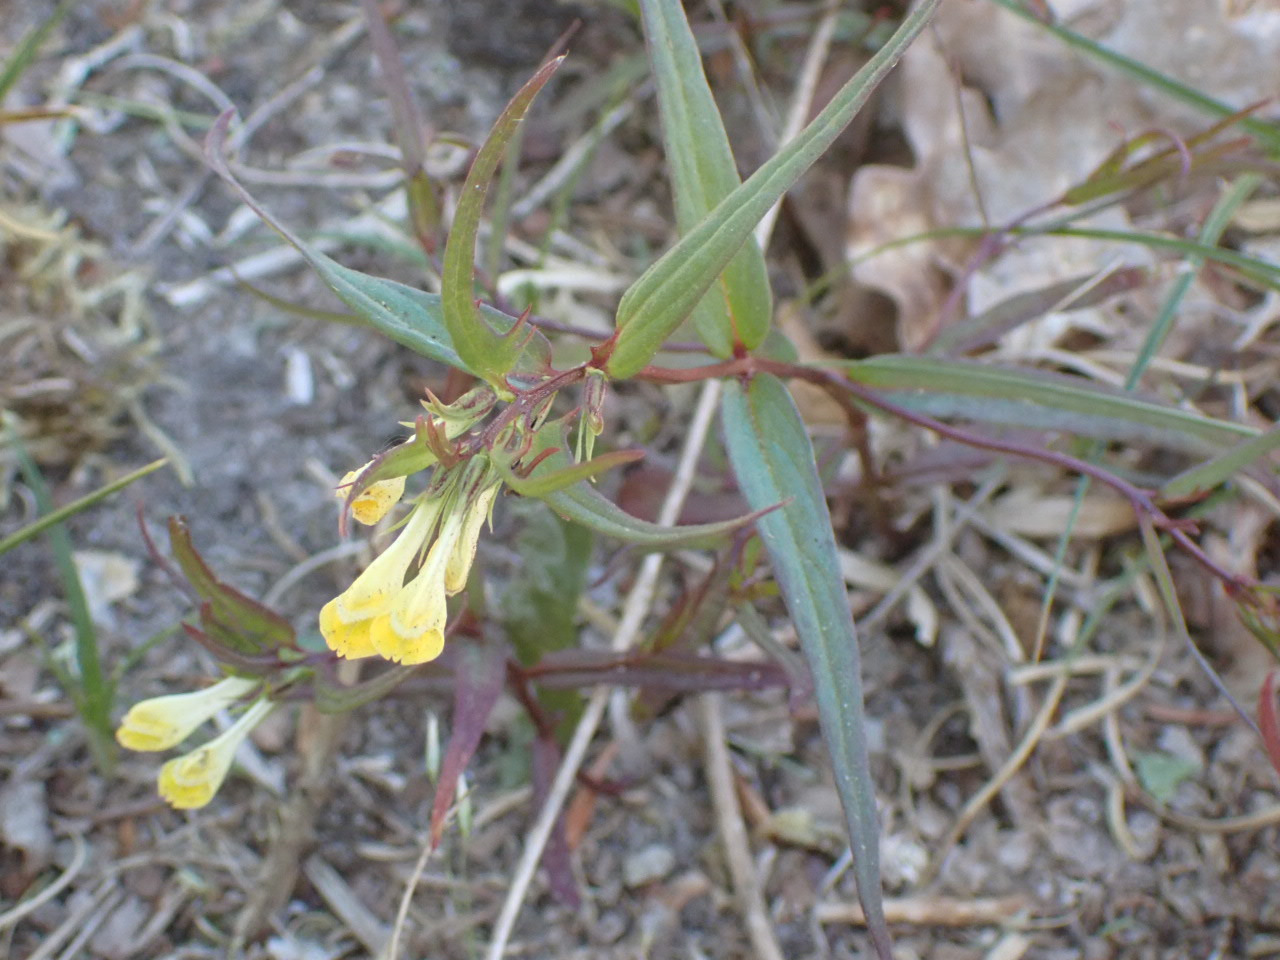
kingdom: Plantae
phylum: Tracheophyta
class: Magnoliopsida
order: Lamiales
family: Orobanchaceae
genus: Melampyrum
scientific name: Melampyrum pratense
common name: Almindelig kohvede
